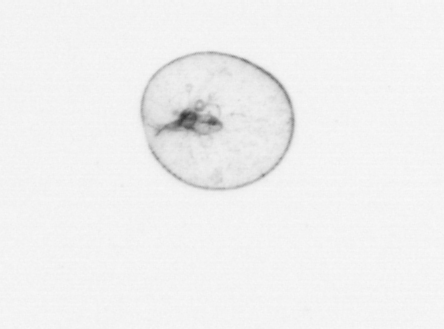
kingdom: Chromista
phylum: Myzozoa
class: Dinophyceae
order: Noctilucales
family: Noctilucaceae
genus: Noctiluca
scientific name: Noctiluca scintillans
